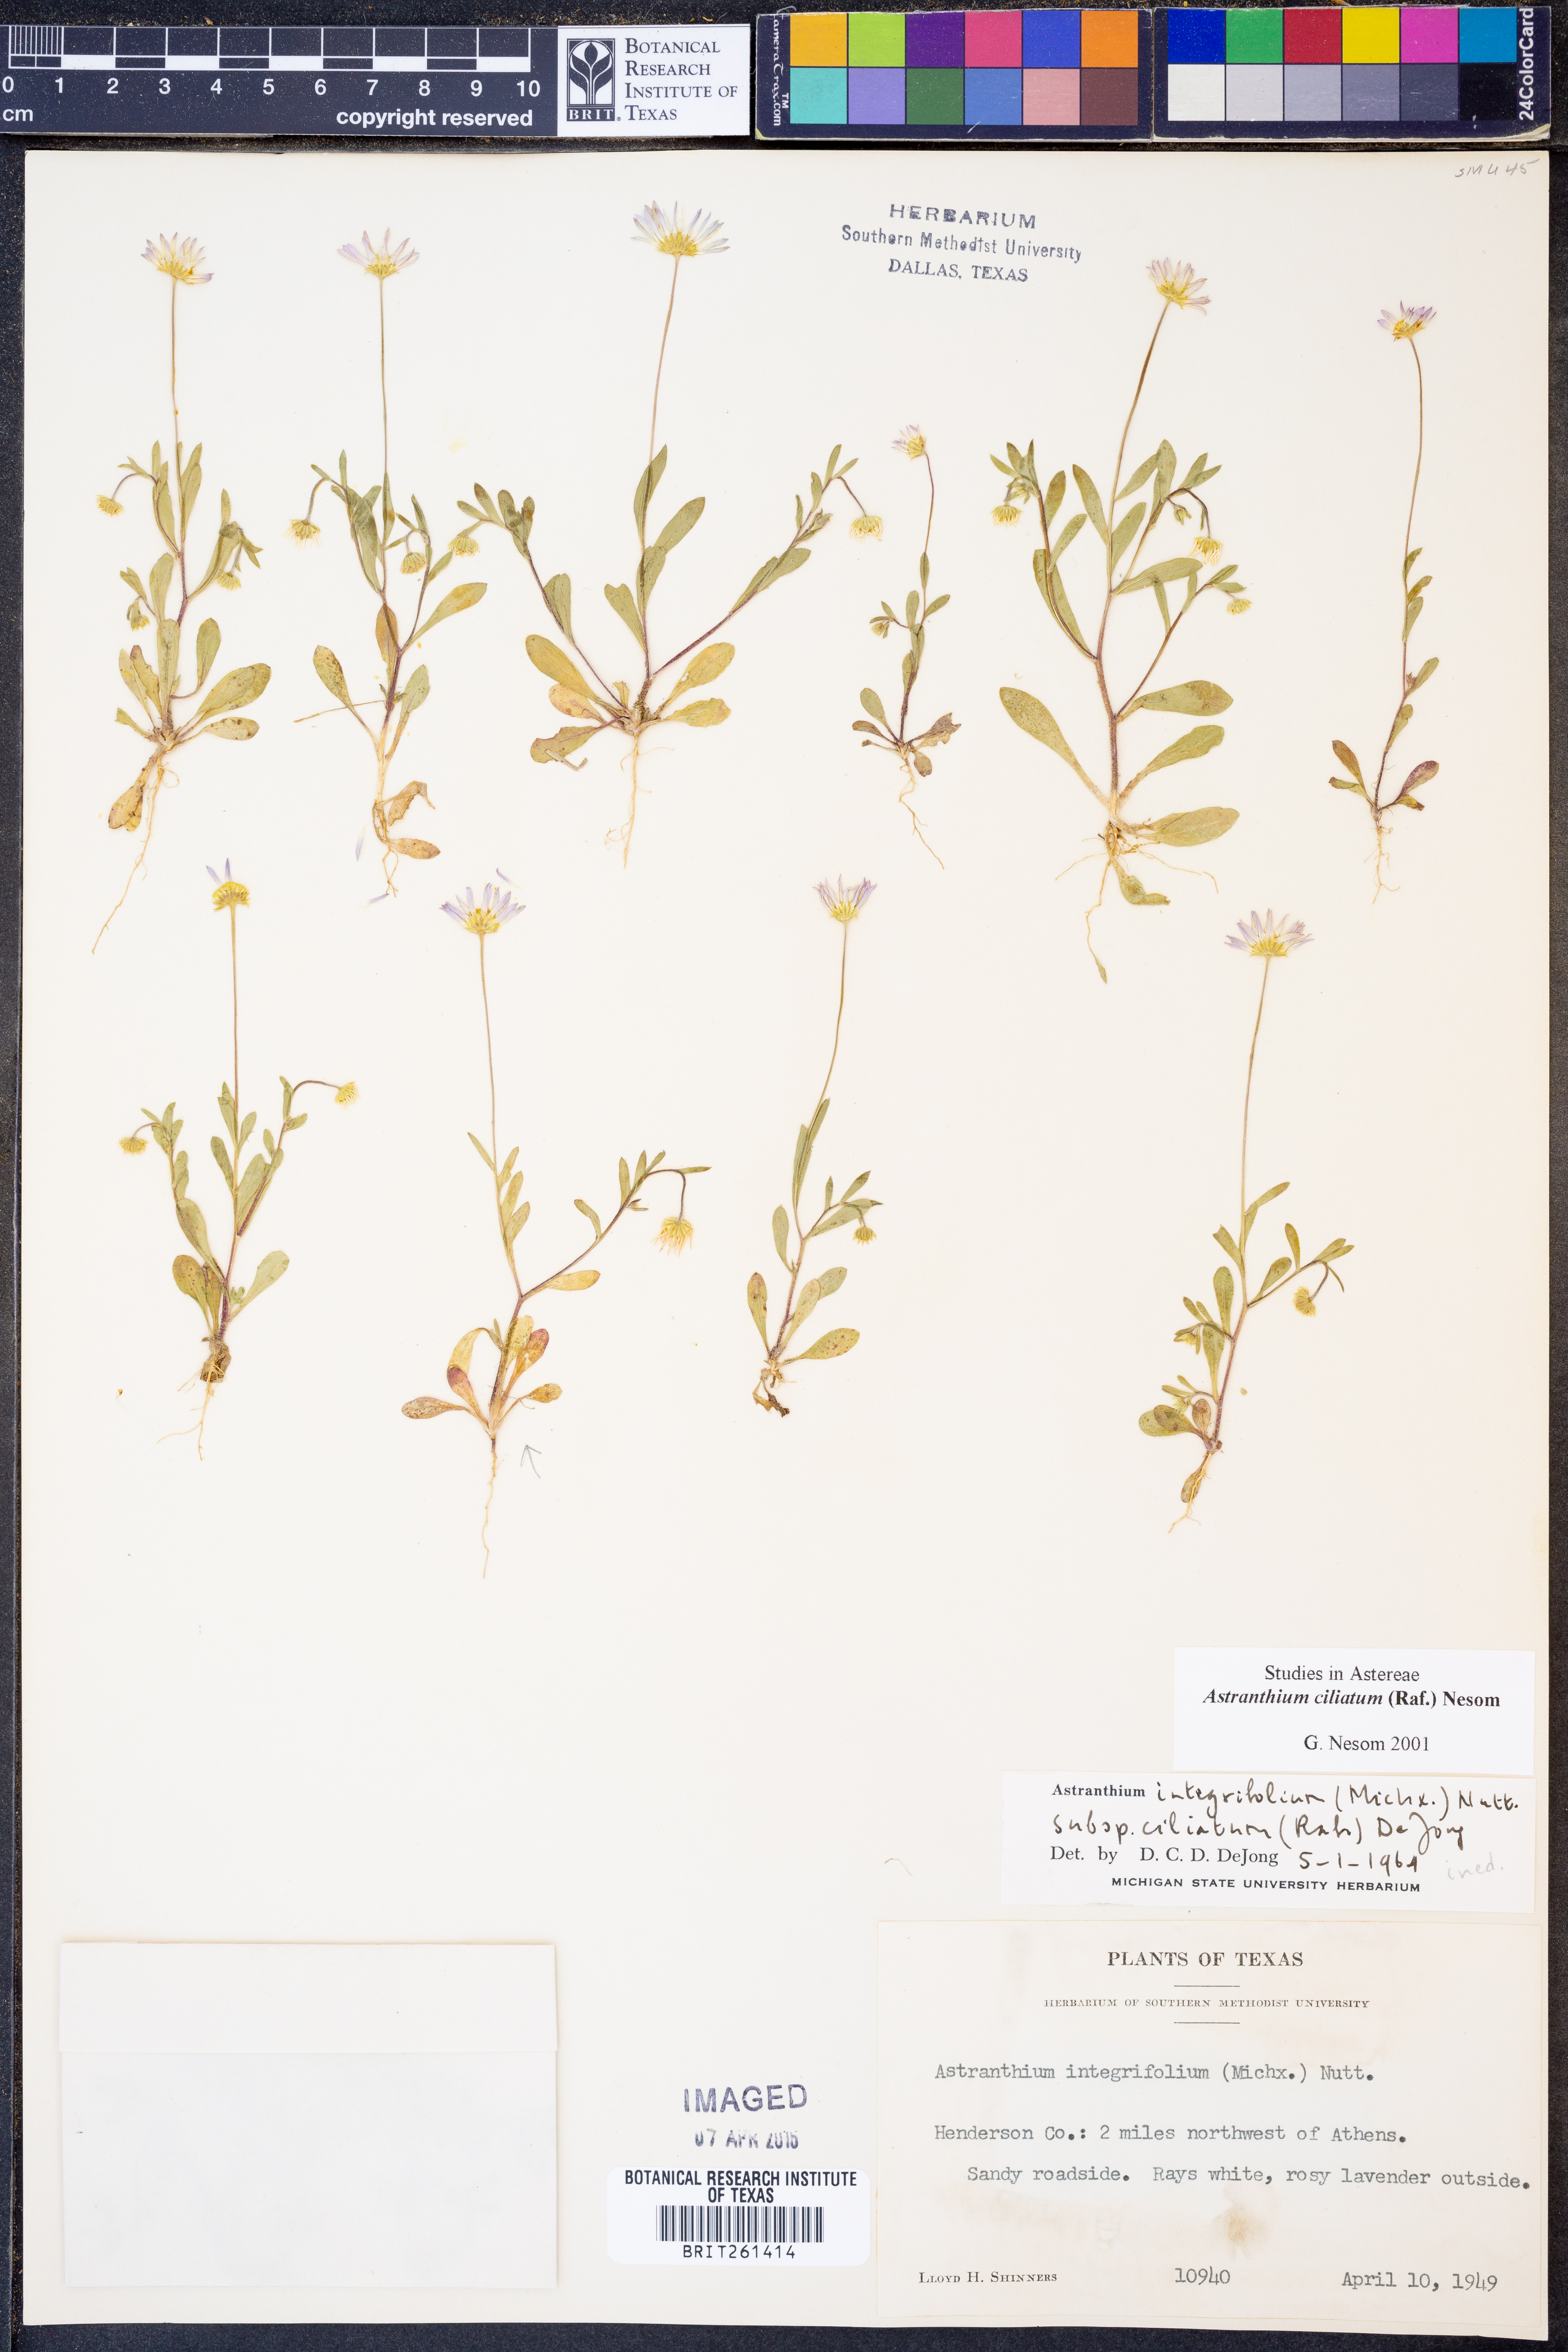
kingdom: Plantae
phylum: Tracheophyta
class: Magnoliopsida
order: Asterales
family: Asteraceae
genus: Astranthium
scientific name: Astranthium ciliatum
